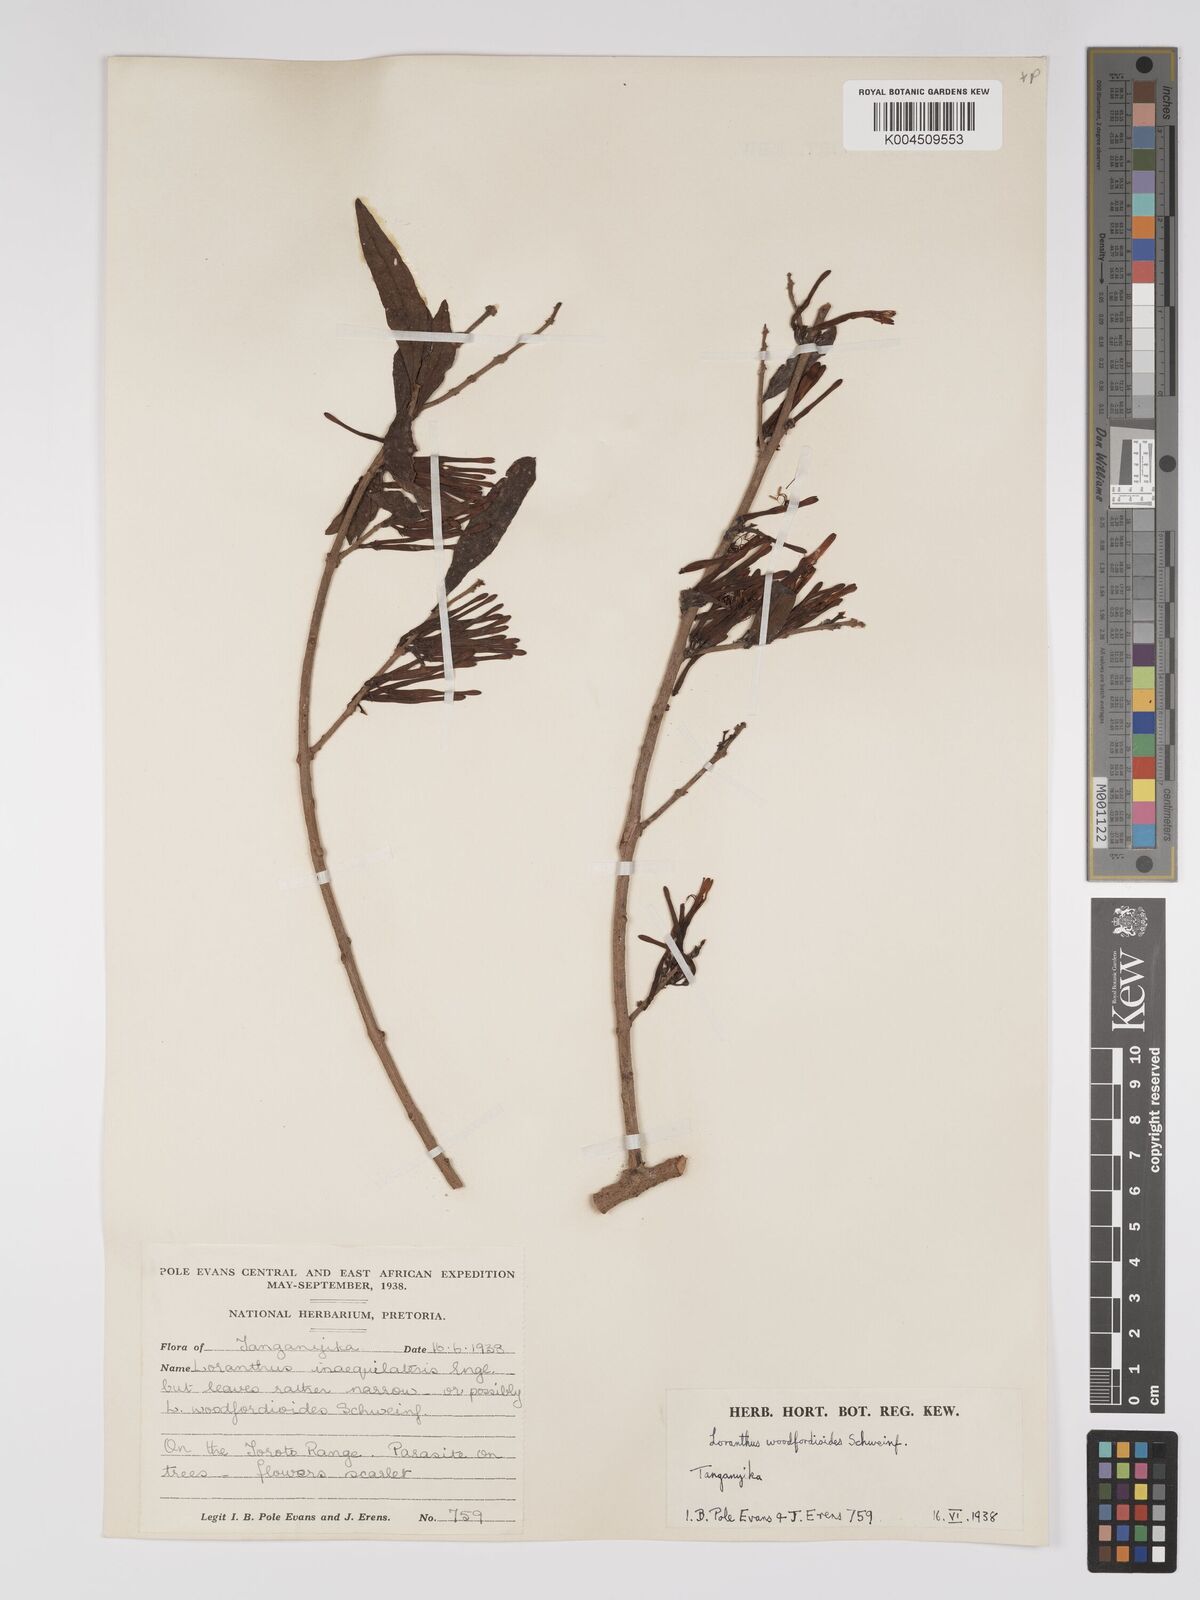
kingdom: Plantae
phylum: Tracheophyta
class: Magnoliopsida
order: Santalales
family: Loranthaceae
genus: Englerina
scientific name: Englerina inaequilatera
